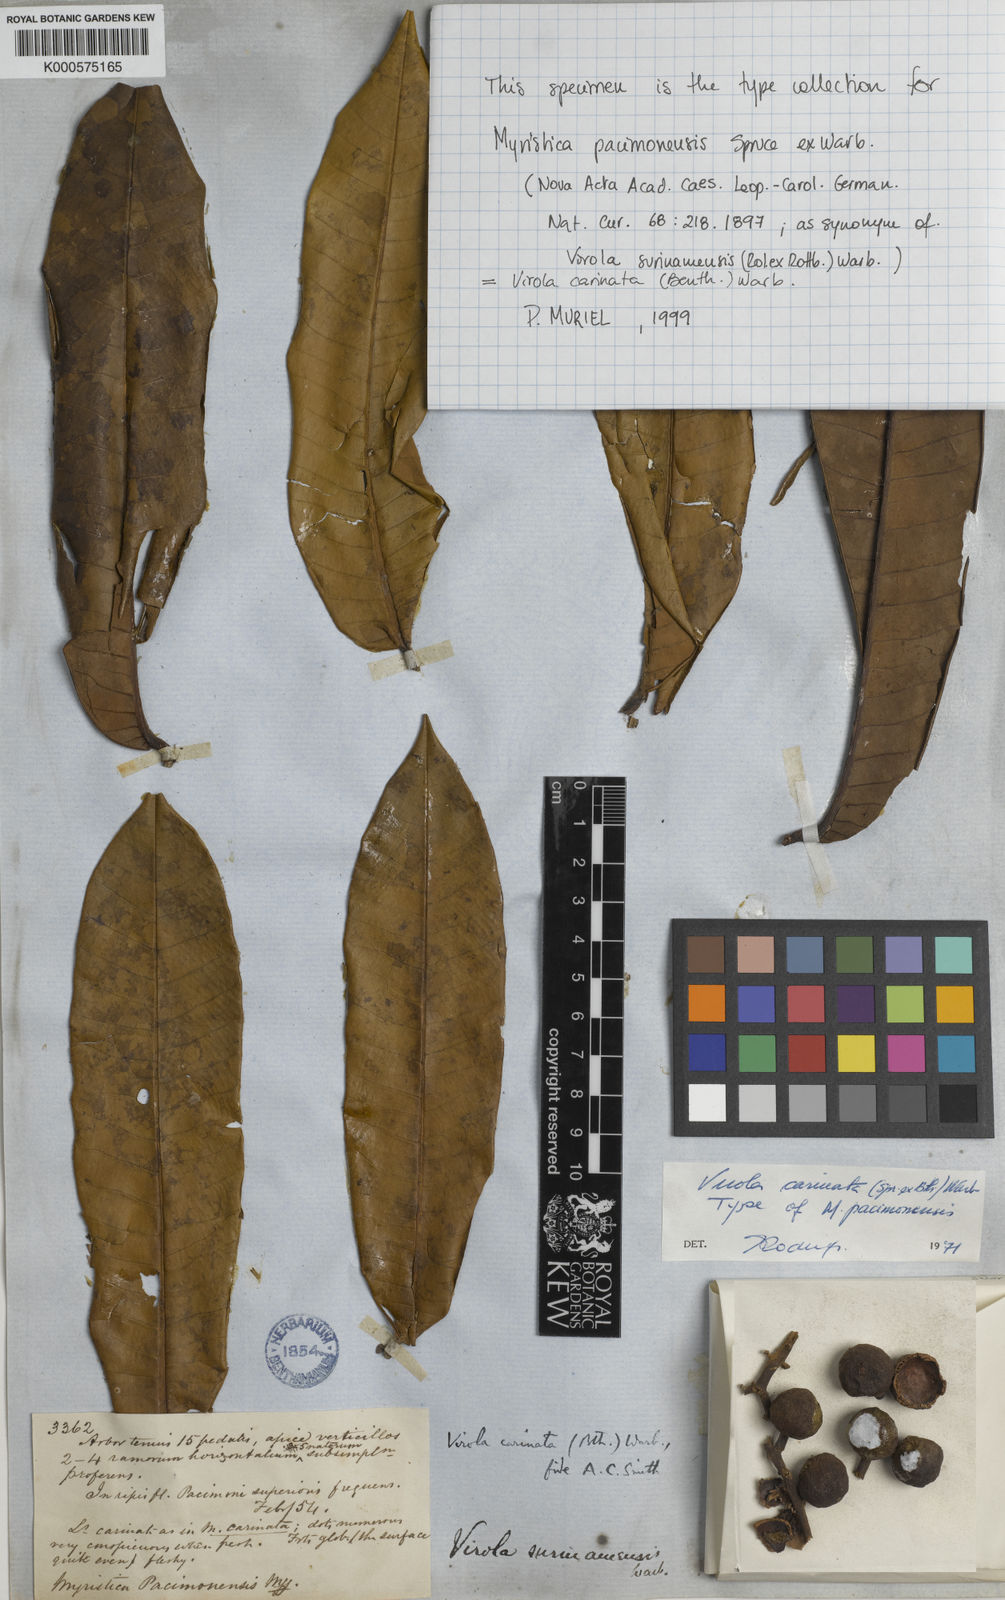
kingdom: Plantae
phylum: Tracheophyta
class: Magnoliopsida
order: Magnoliales
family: Myristicaceae
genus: Virola
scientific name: Virola carinata
